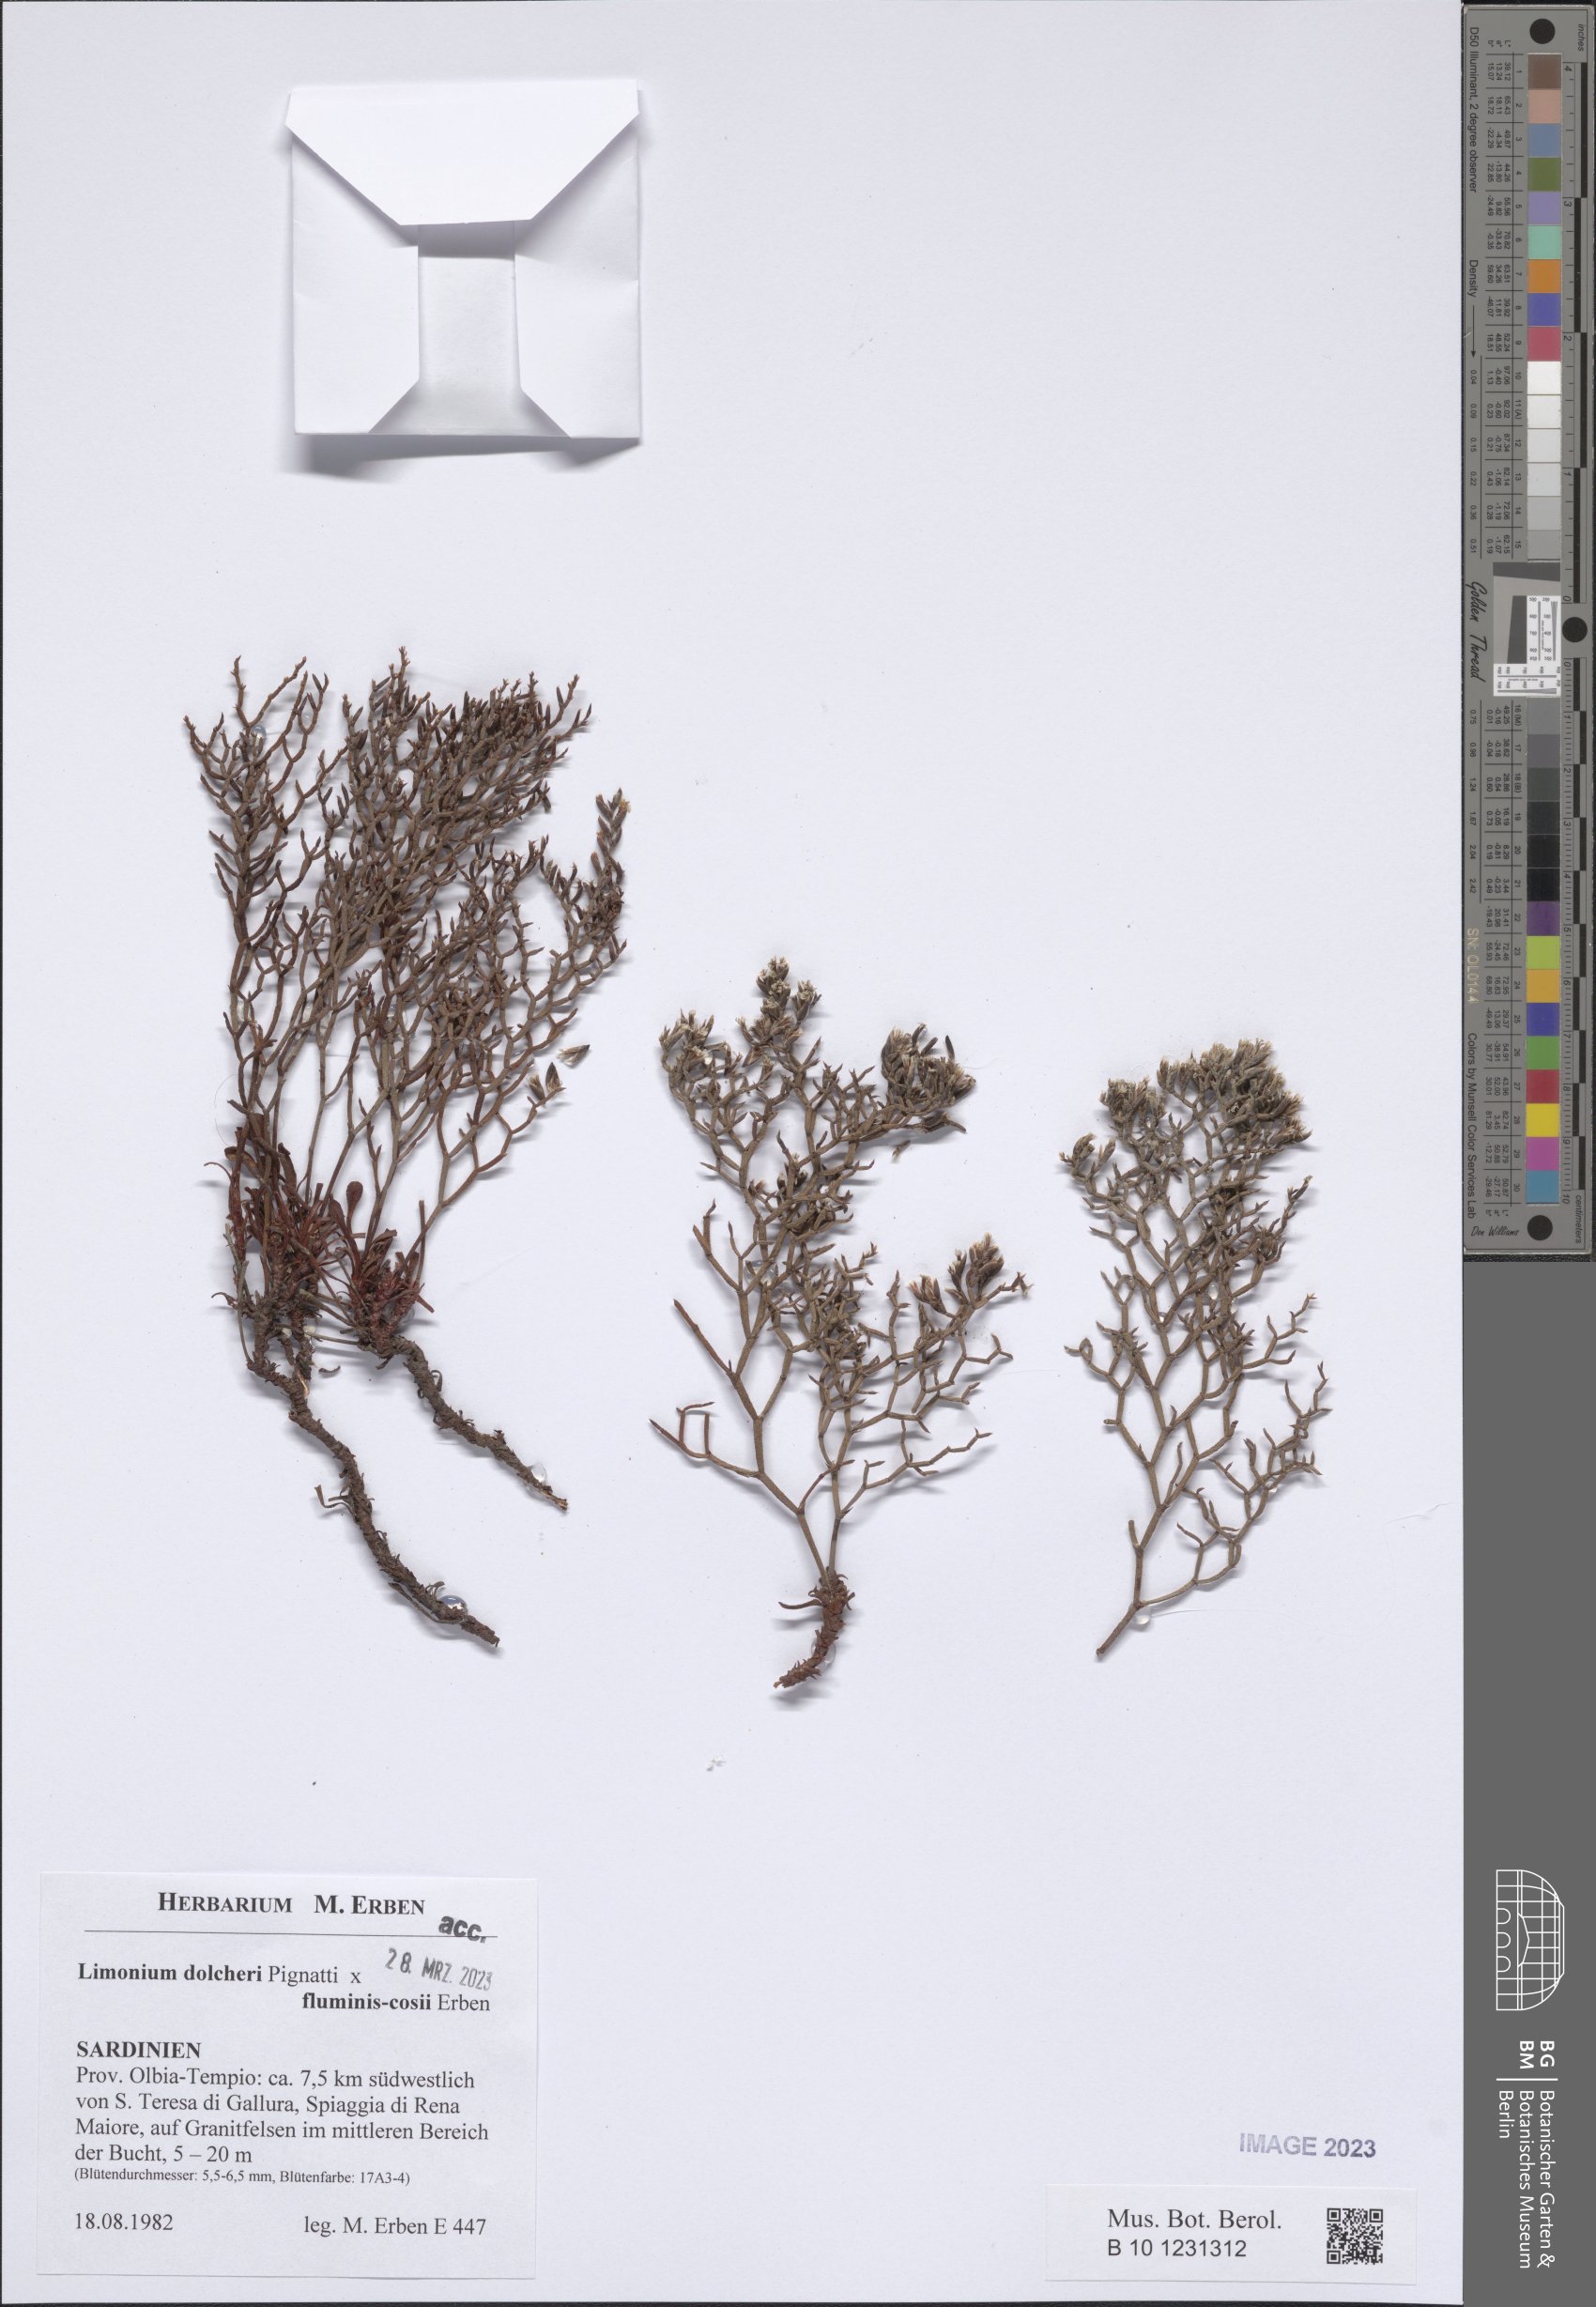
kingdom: Plantae
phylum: Tracheophyta
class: Magnoliopsida
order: Caryophyllales
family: Plumbaginaceae
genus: Limonium
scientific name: Limonium dolcheri
